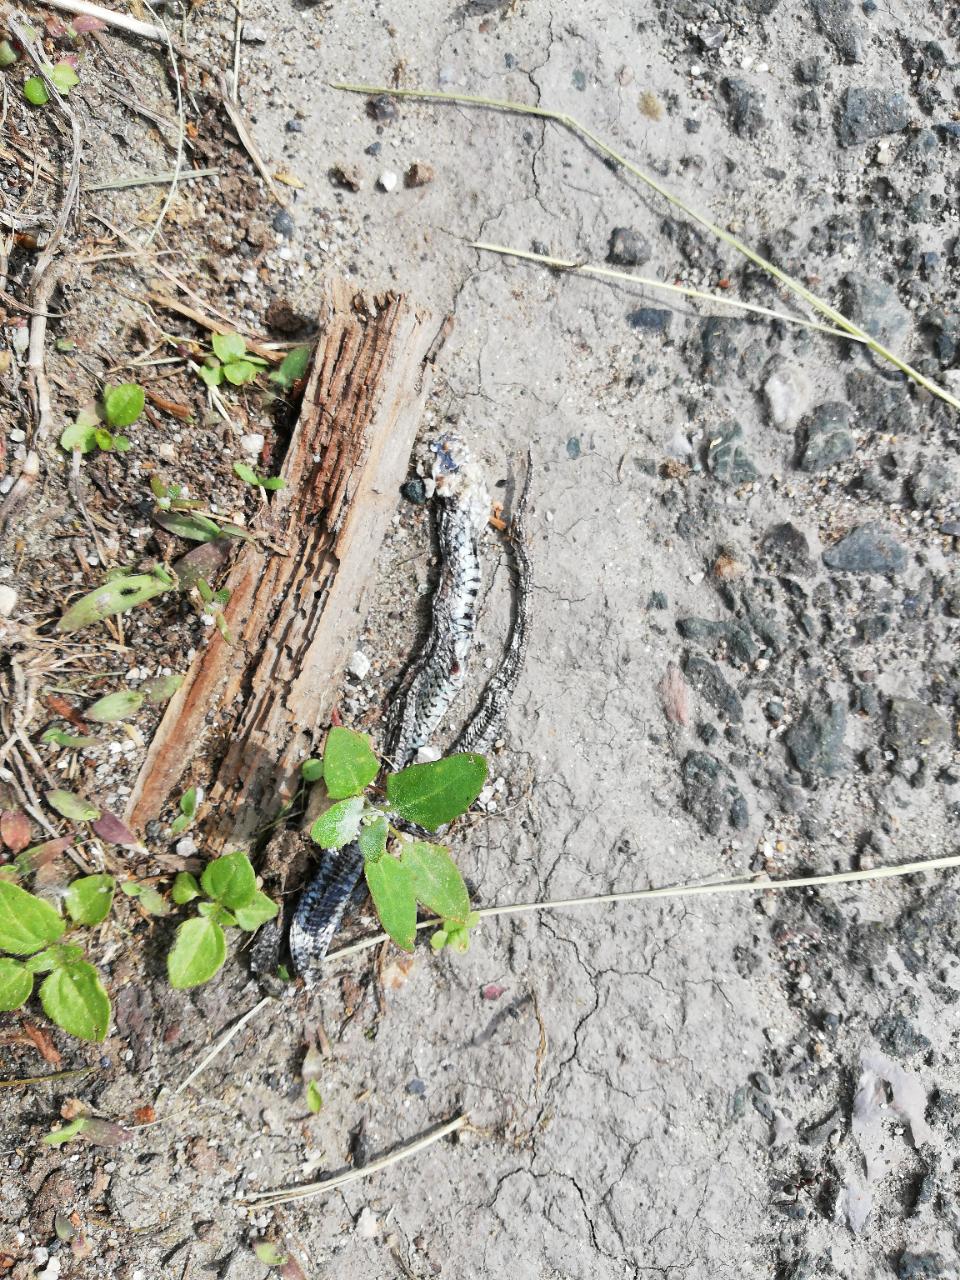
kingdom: Animalia
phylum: Chordata
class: Squamata
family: Colubridae
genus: Natrix
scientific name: Natrix natrix
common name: Grass snake
